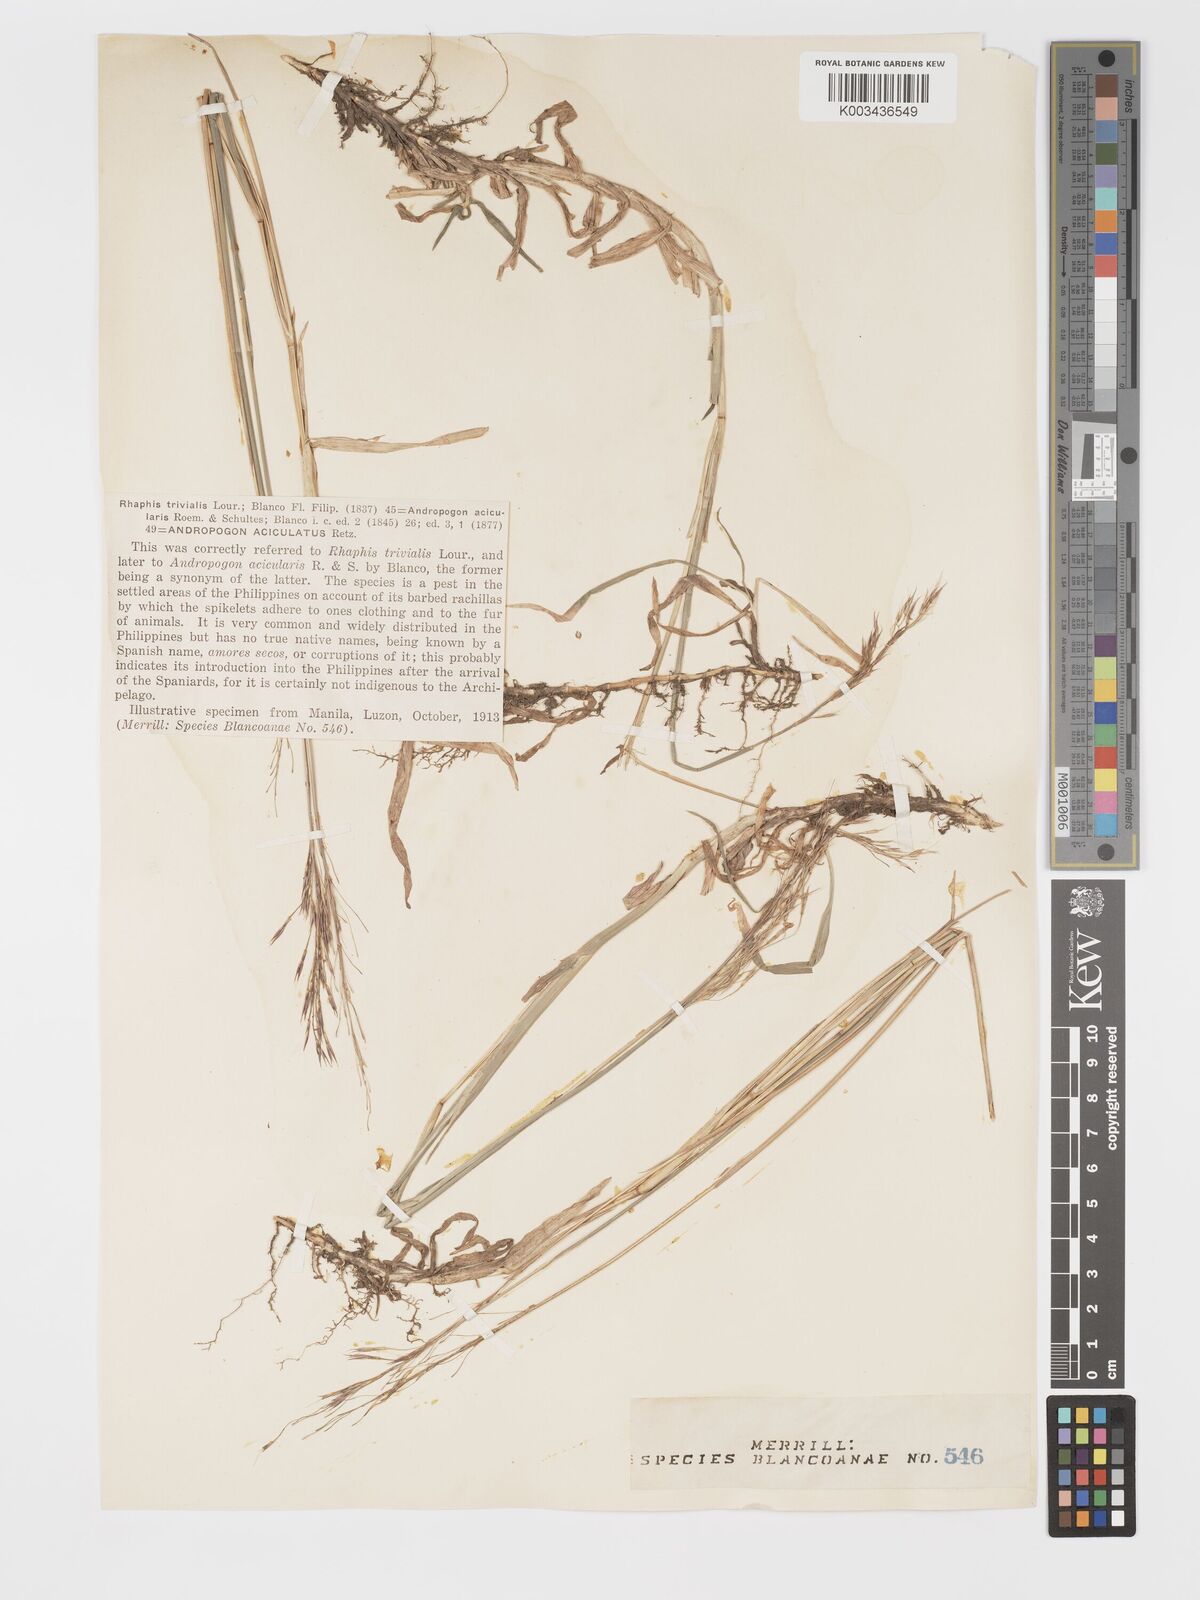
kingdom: Plantae
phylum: Tracheophyta
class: Liliopsida
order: Poales
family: Poaceae
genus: Chrysopogon
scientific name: Chrysopogon aciculatus
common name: Pilipiliula
